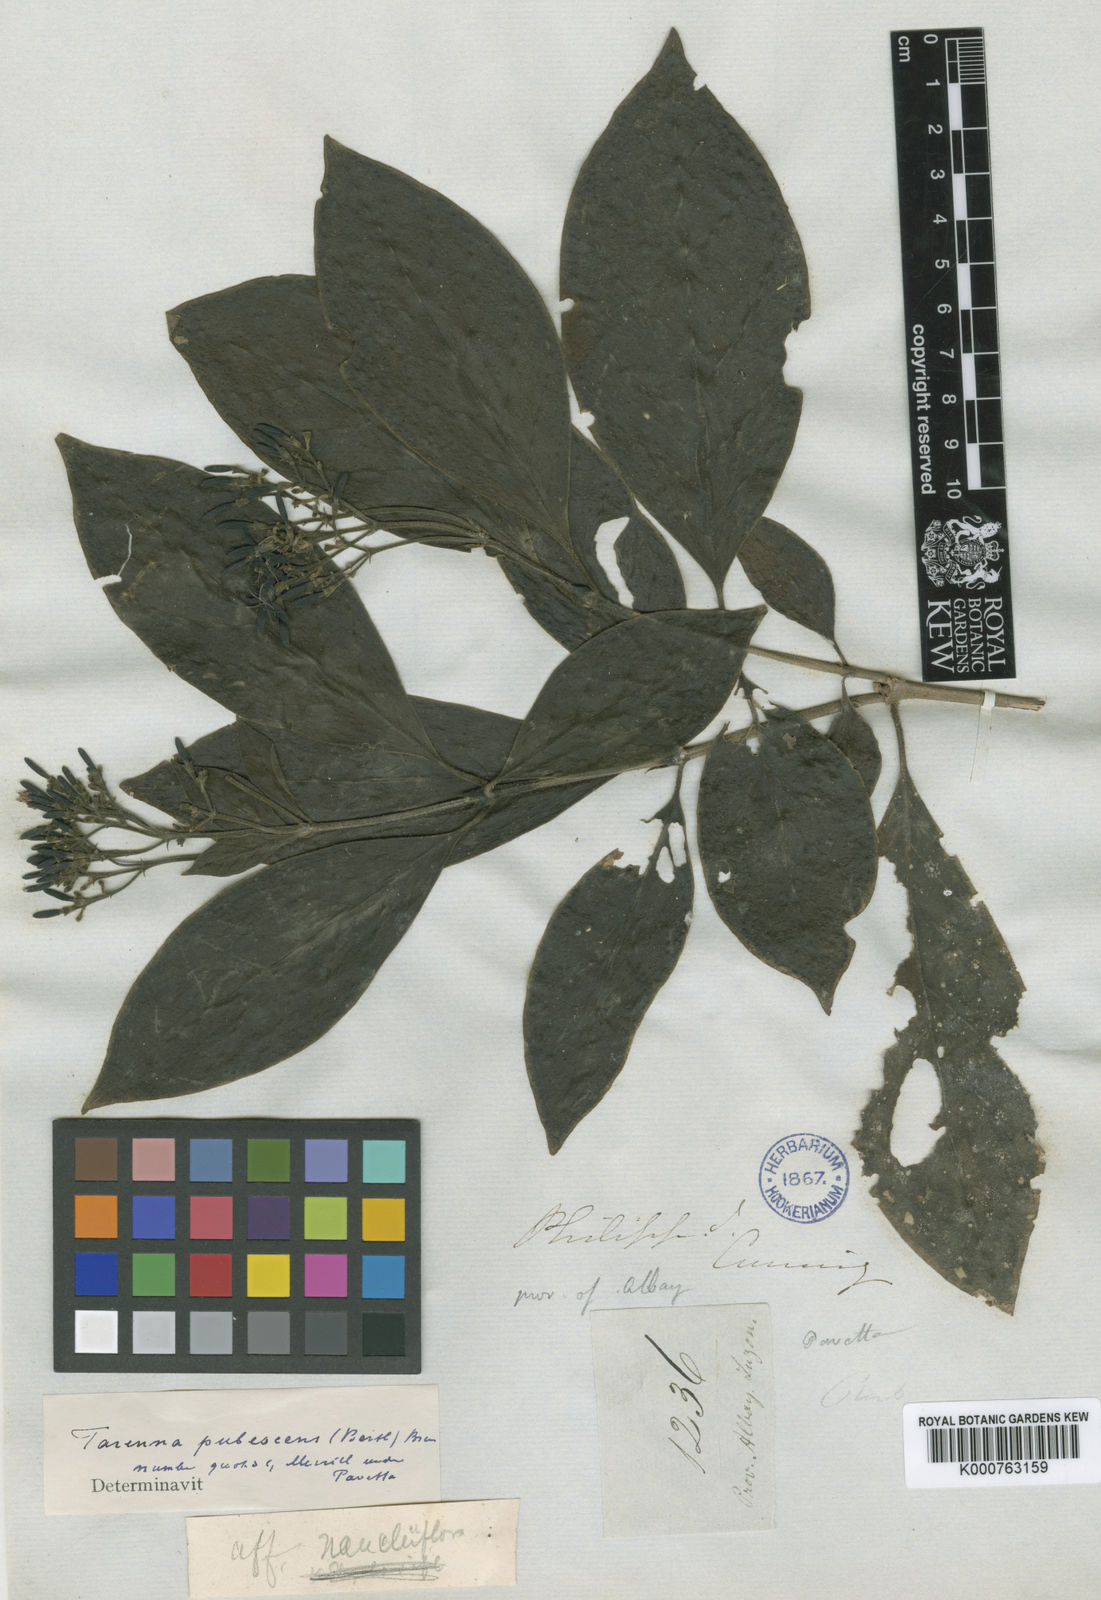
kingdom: Plantae
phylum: Tracheophyta
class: Magnoliopsida
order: Gentianales
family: Rubiaceae
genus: Tarenna
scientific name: Tarenna bartlingii
